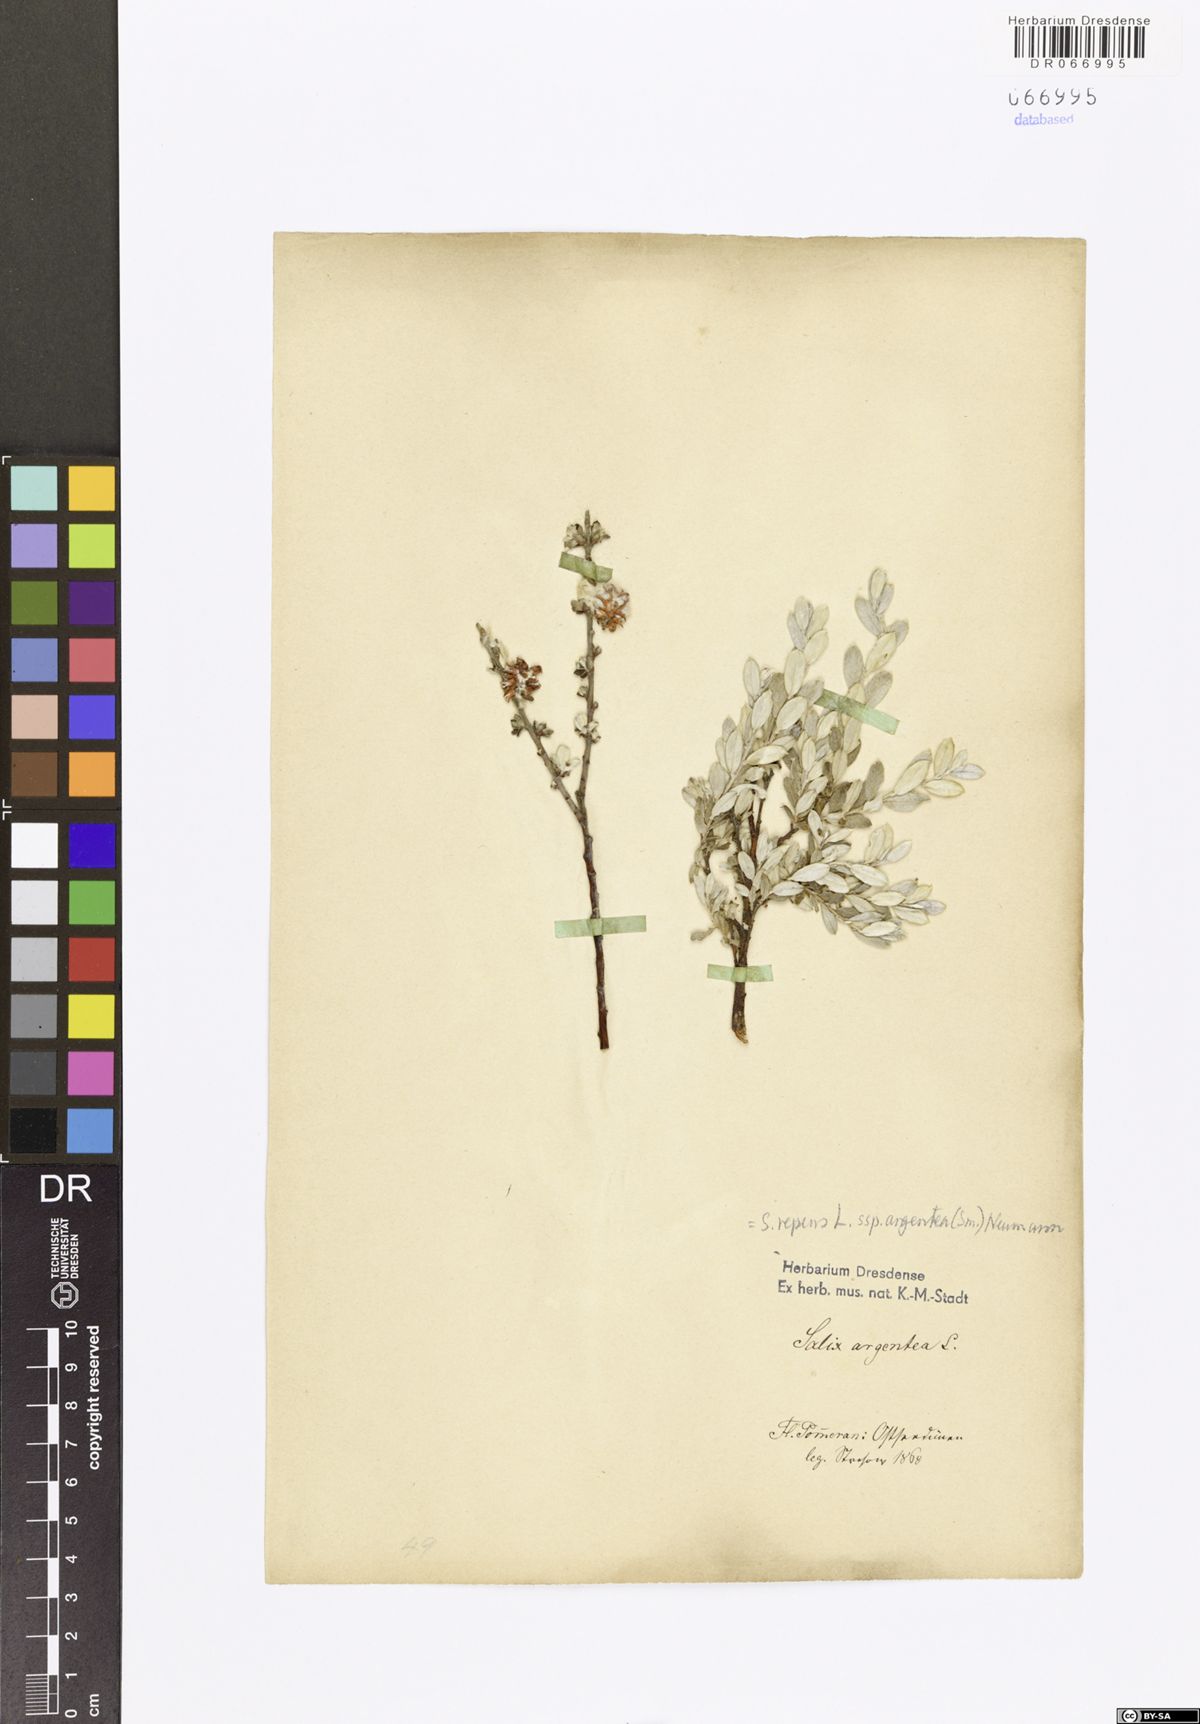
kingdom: Plantae
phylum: Tracheophyta
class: Magnoliopsida
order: Malpighiales
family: Salicaceae
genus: Salix
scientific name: Salix repens
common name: Creeping willow
